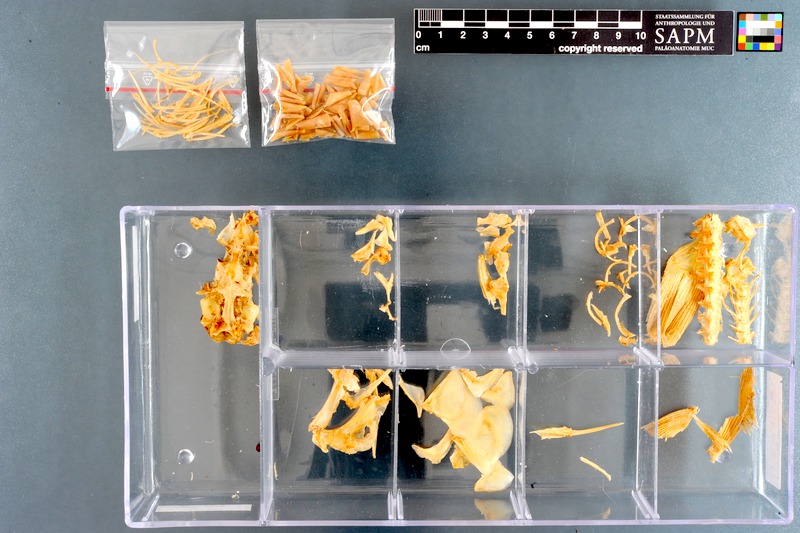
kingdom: Animalia
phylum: Chordata
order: Mugiliformes
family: Mugilidae
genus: Ellochelon
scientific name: Ellochelon vaigiensis
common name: Squaretail mullet
